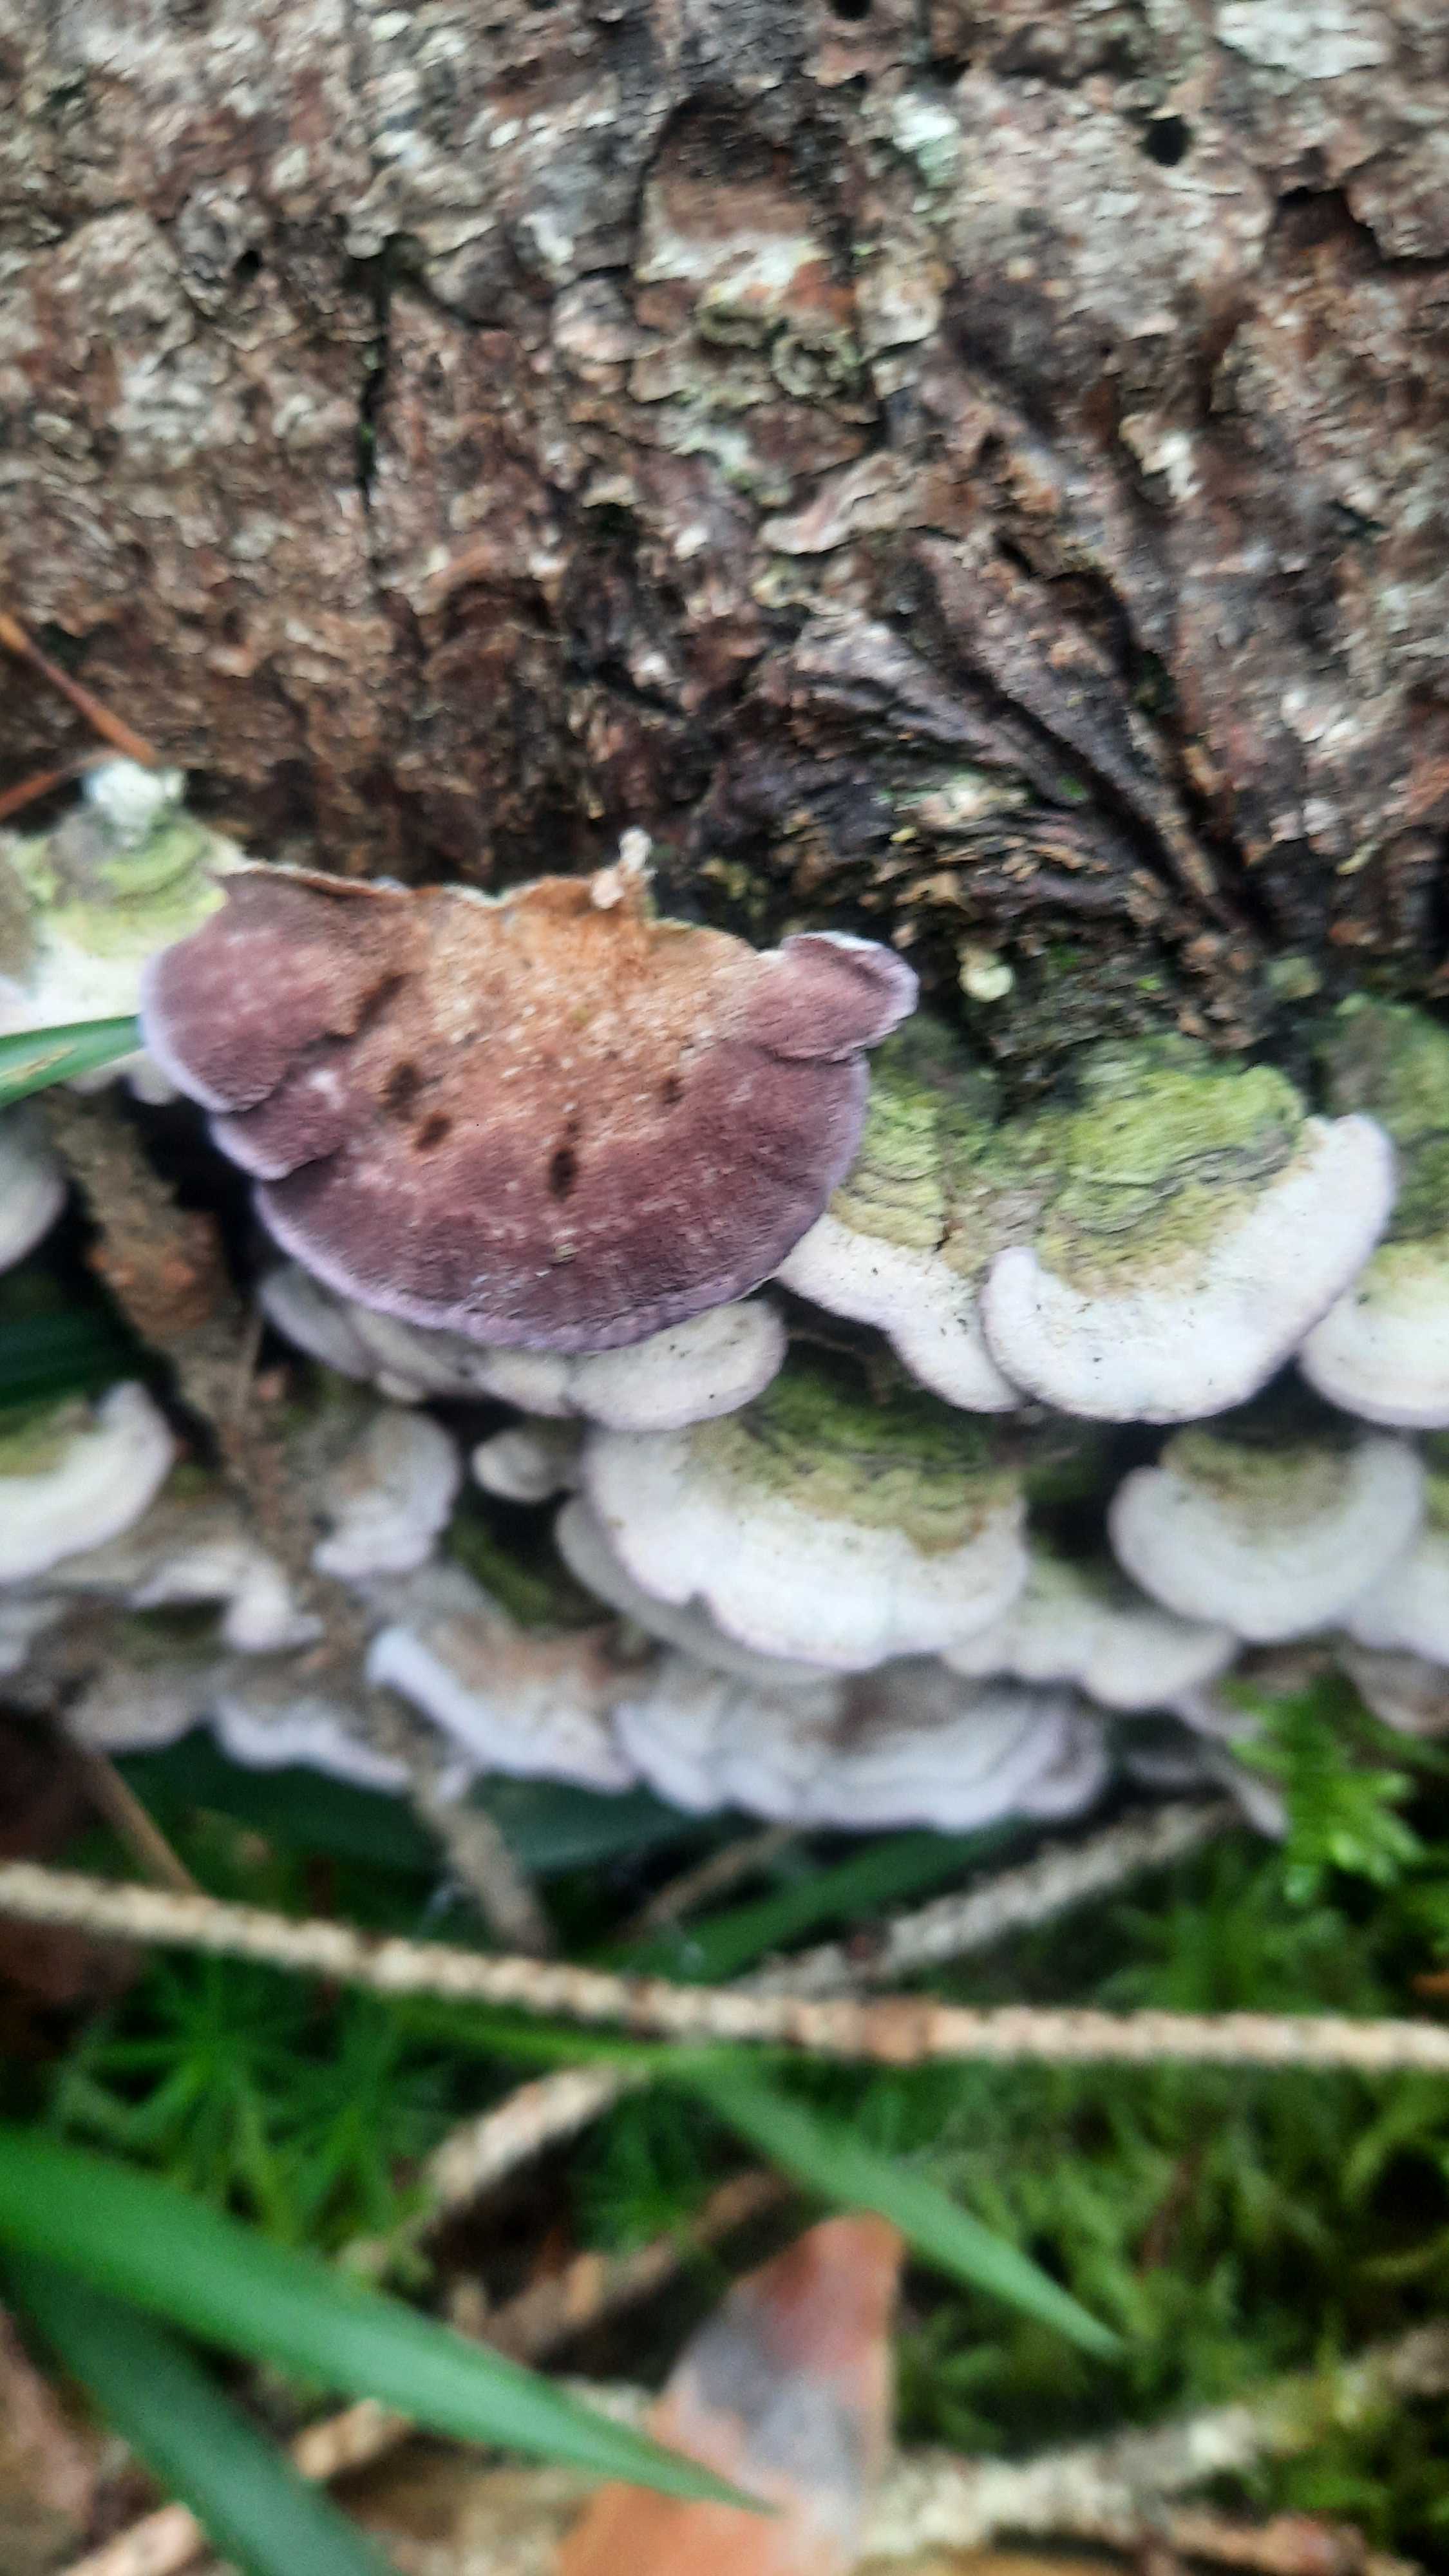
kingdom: Fungi
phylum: Basidiomycota
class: Agaricomycetes
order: Hymenochaetales
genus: Trichaptum
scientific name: Trichaptum abietinum
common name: almindelig violporesvamp
